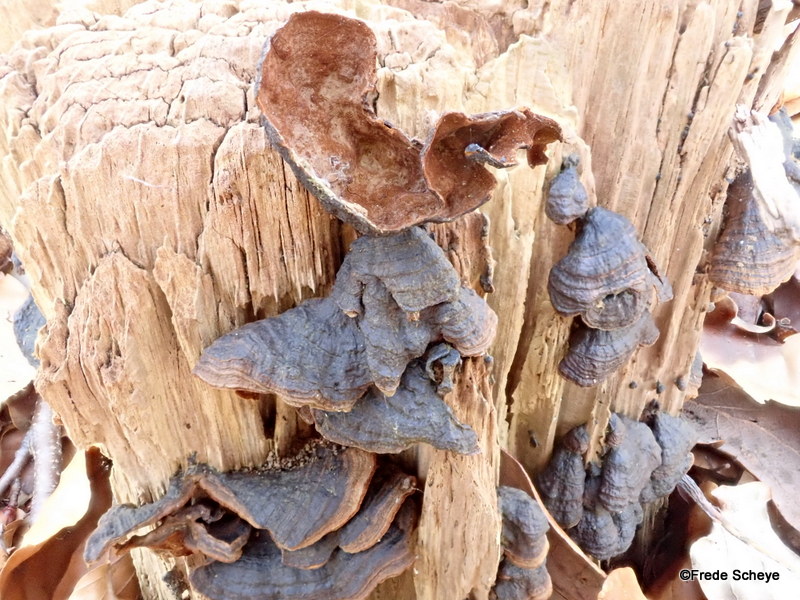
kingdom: Fungi
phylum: Basidiomycota
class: Agaricomycetes
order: Hymenochaetales
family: Hymenochaetaceae
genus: Hymenochaete
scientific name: Hymenochaete rubiginosa
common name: stiv ruslædersvamp
